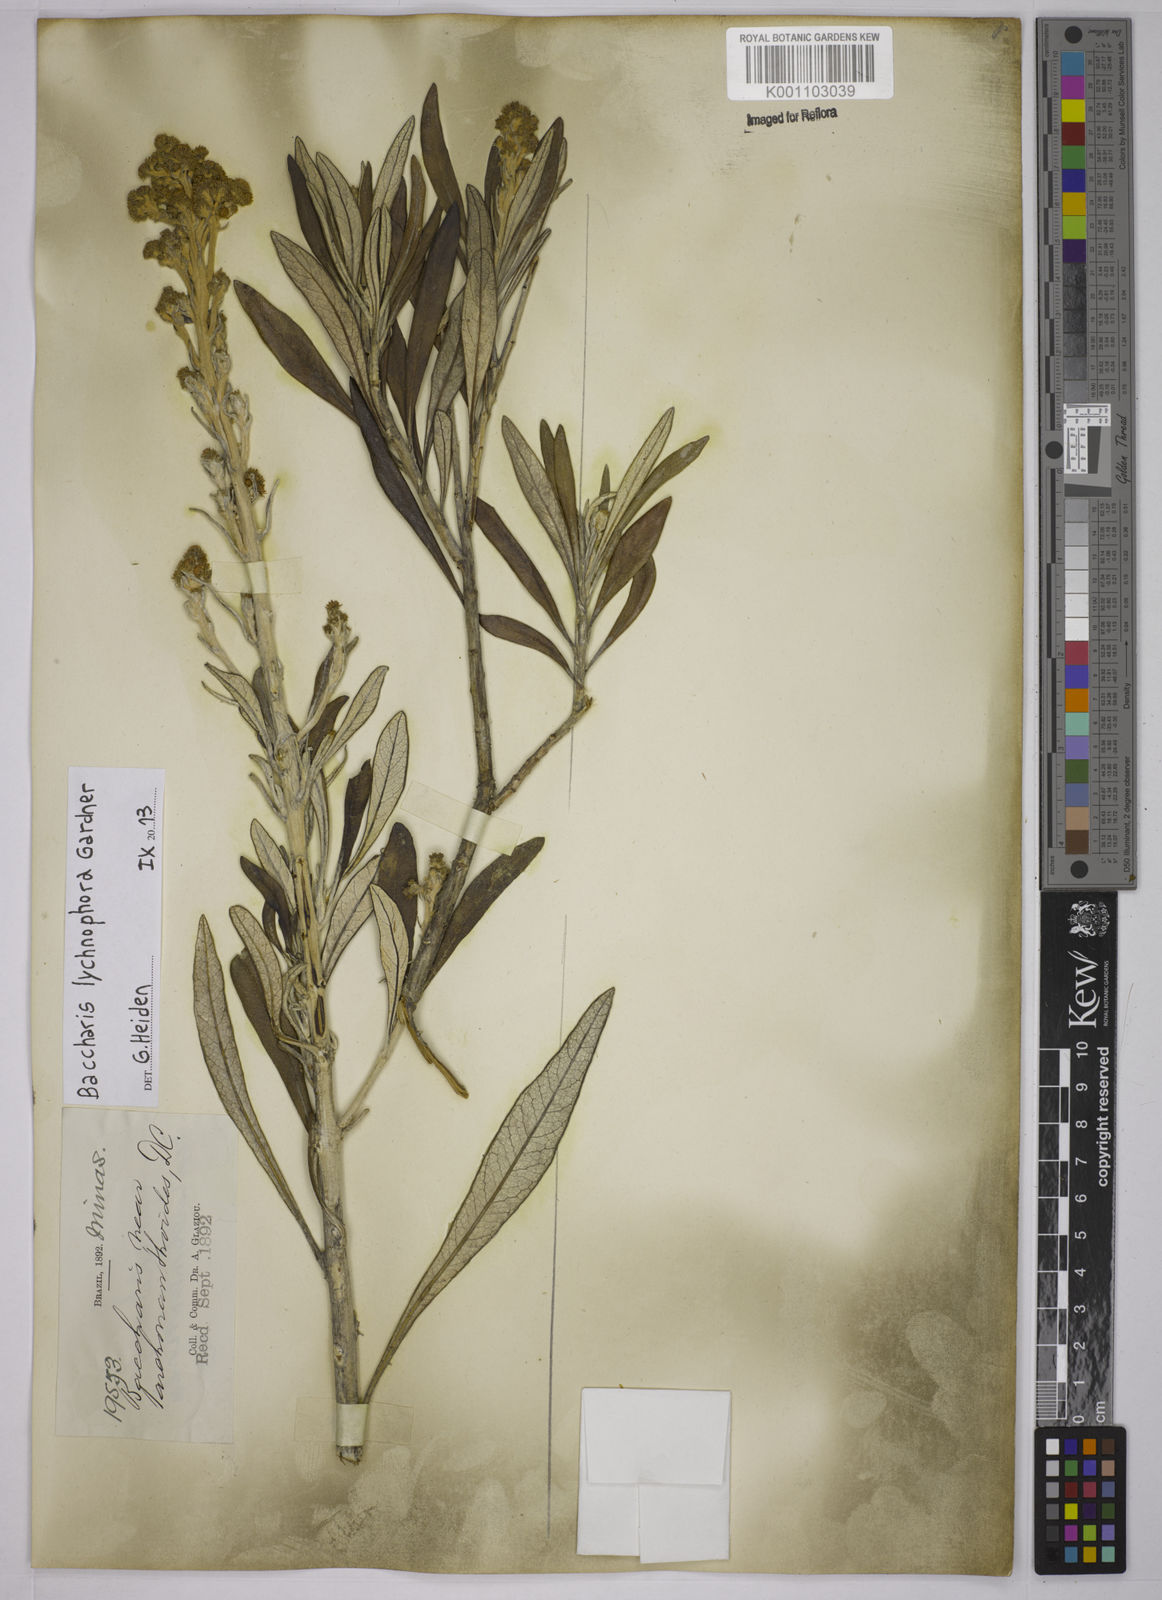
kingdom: Plantae
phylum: Tracheophyta
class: Magnoliopsida
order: Asterales
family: Asteraceae
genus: Baccharis
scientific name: Baccharis lychnophora
